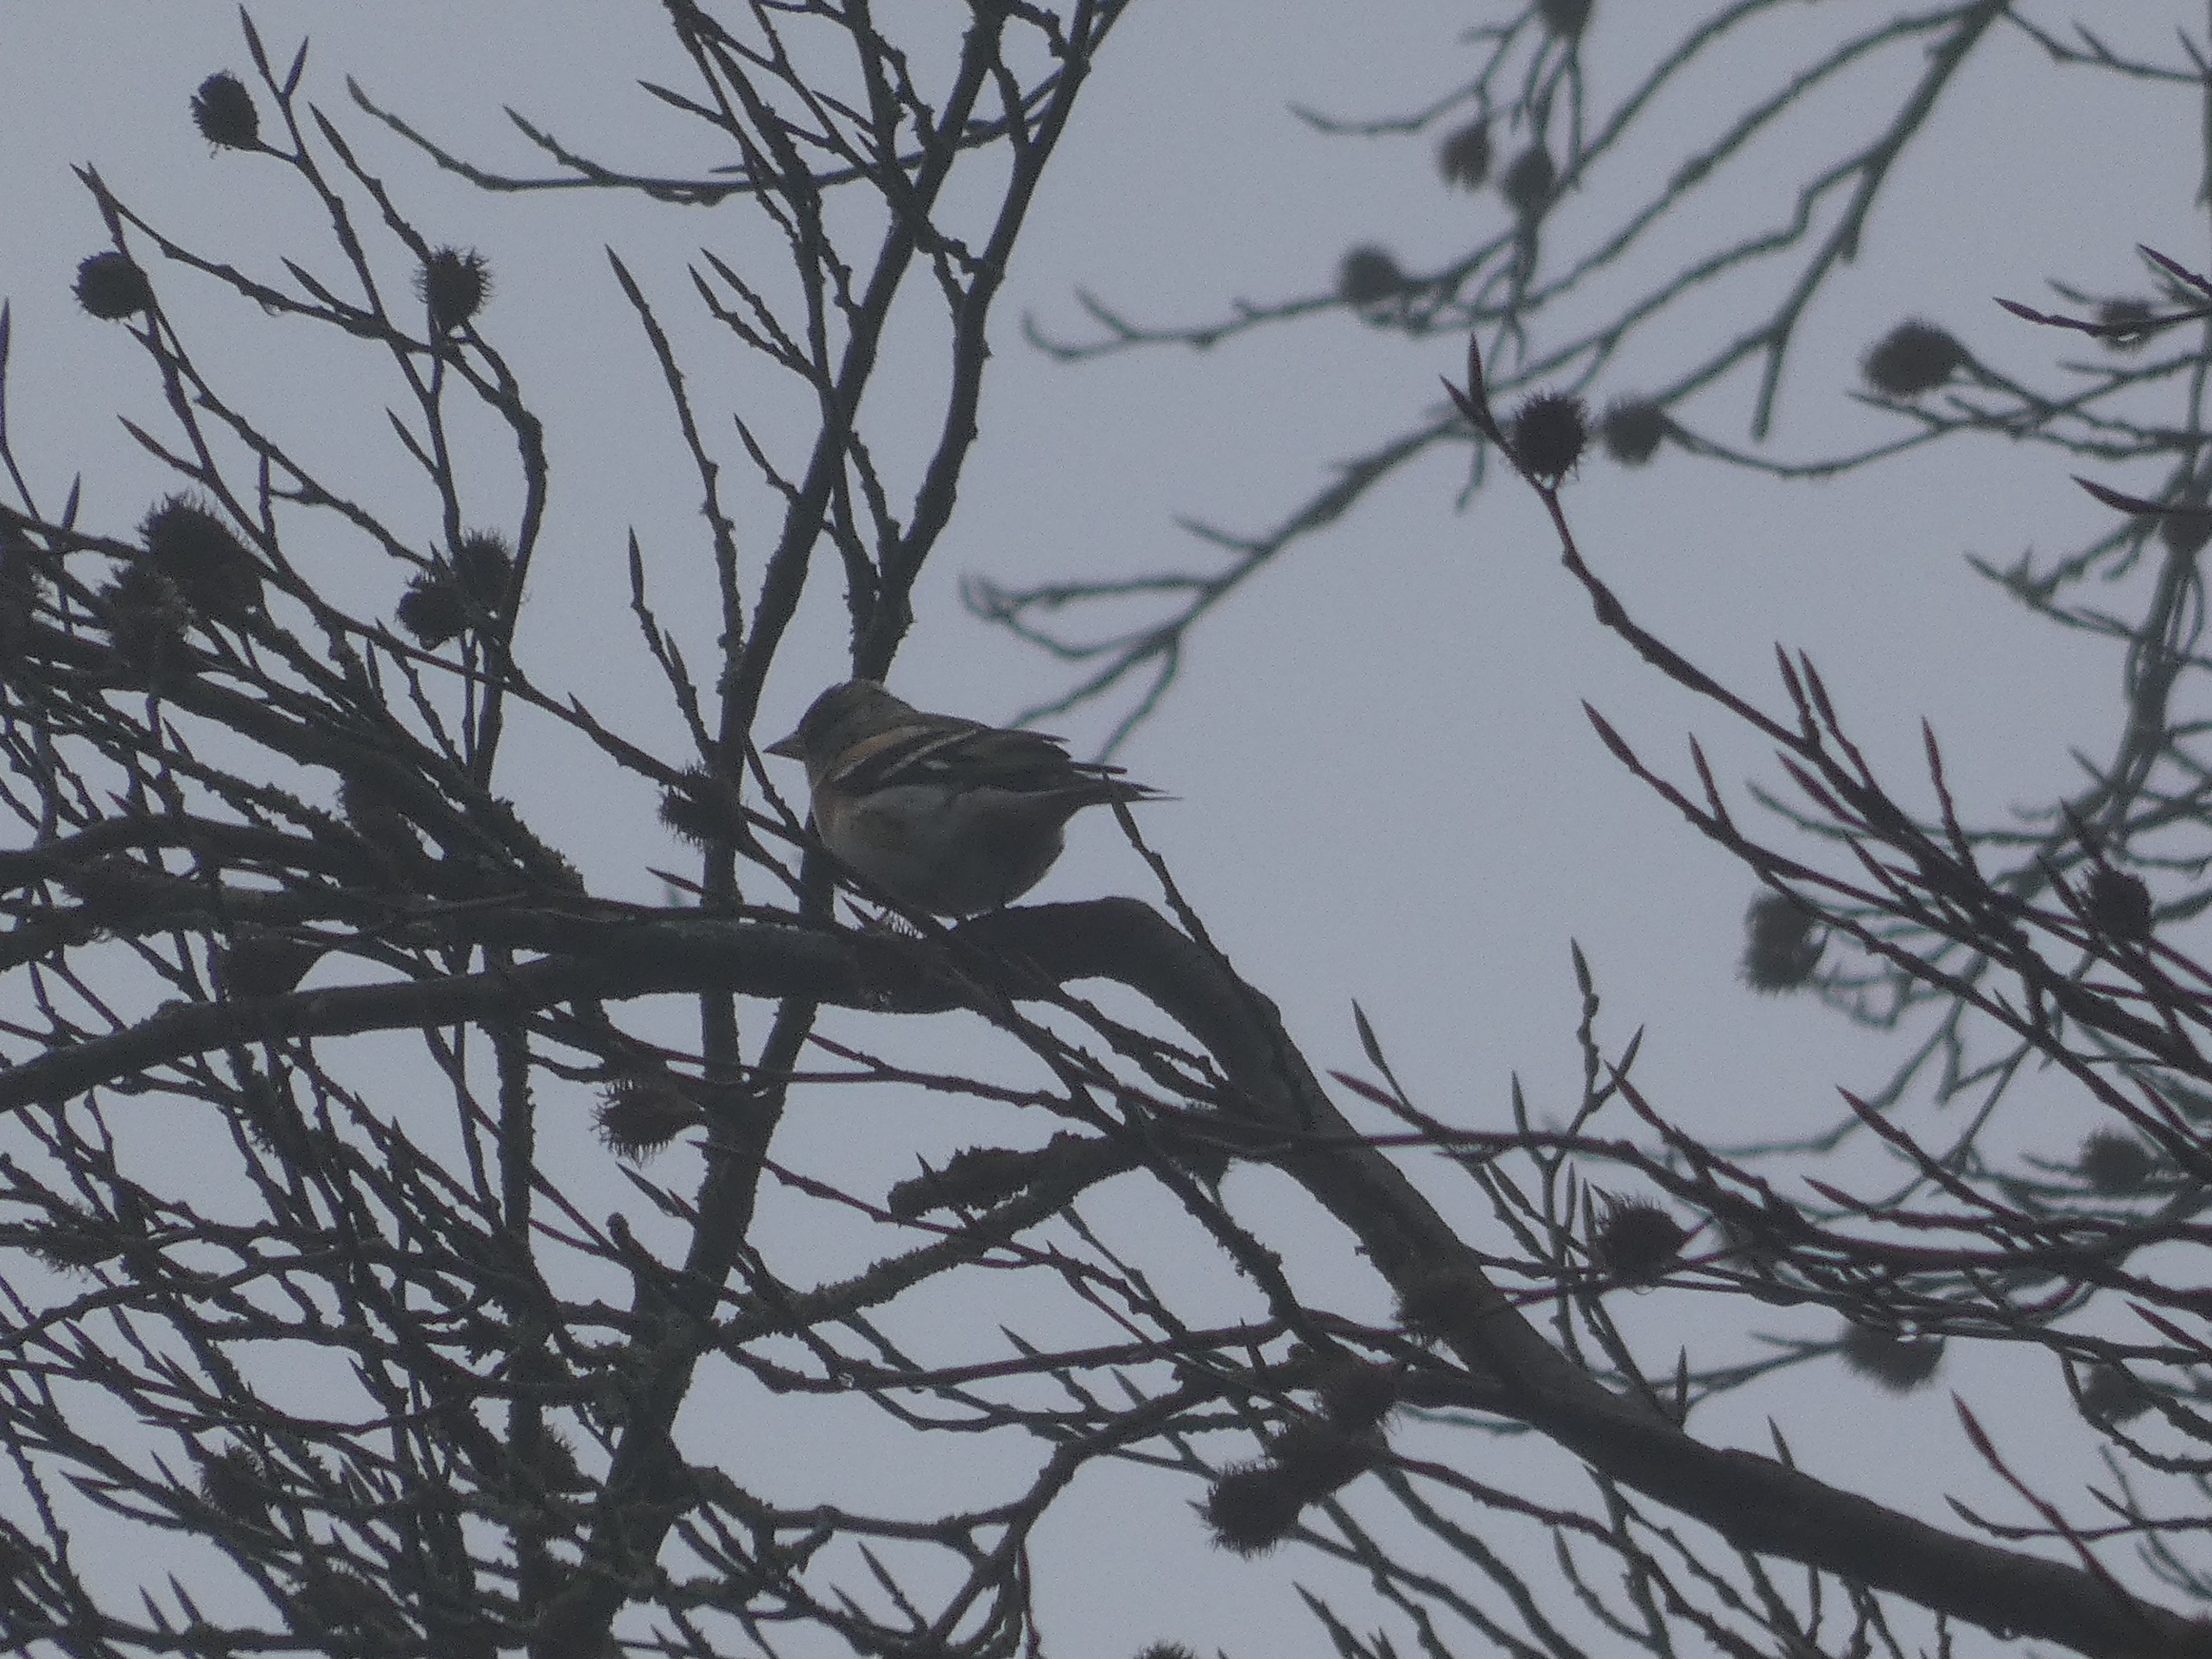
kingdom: Animalia
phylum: Chordata
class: Aves
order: Passeriformes
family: Fringillidae
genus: Fringilla
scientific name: Fringilla montifringilla
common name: Kvækerfinke
